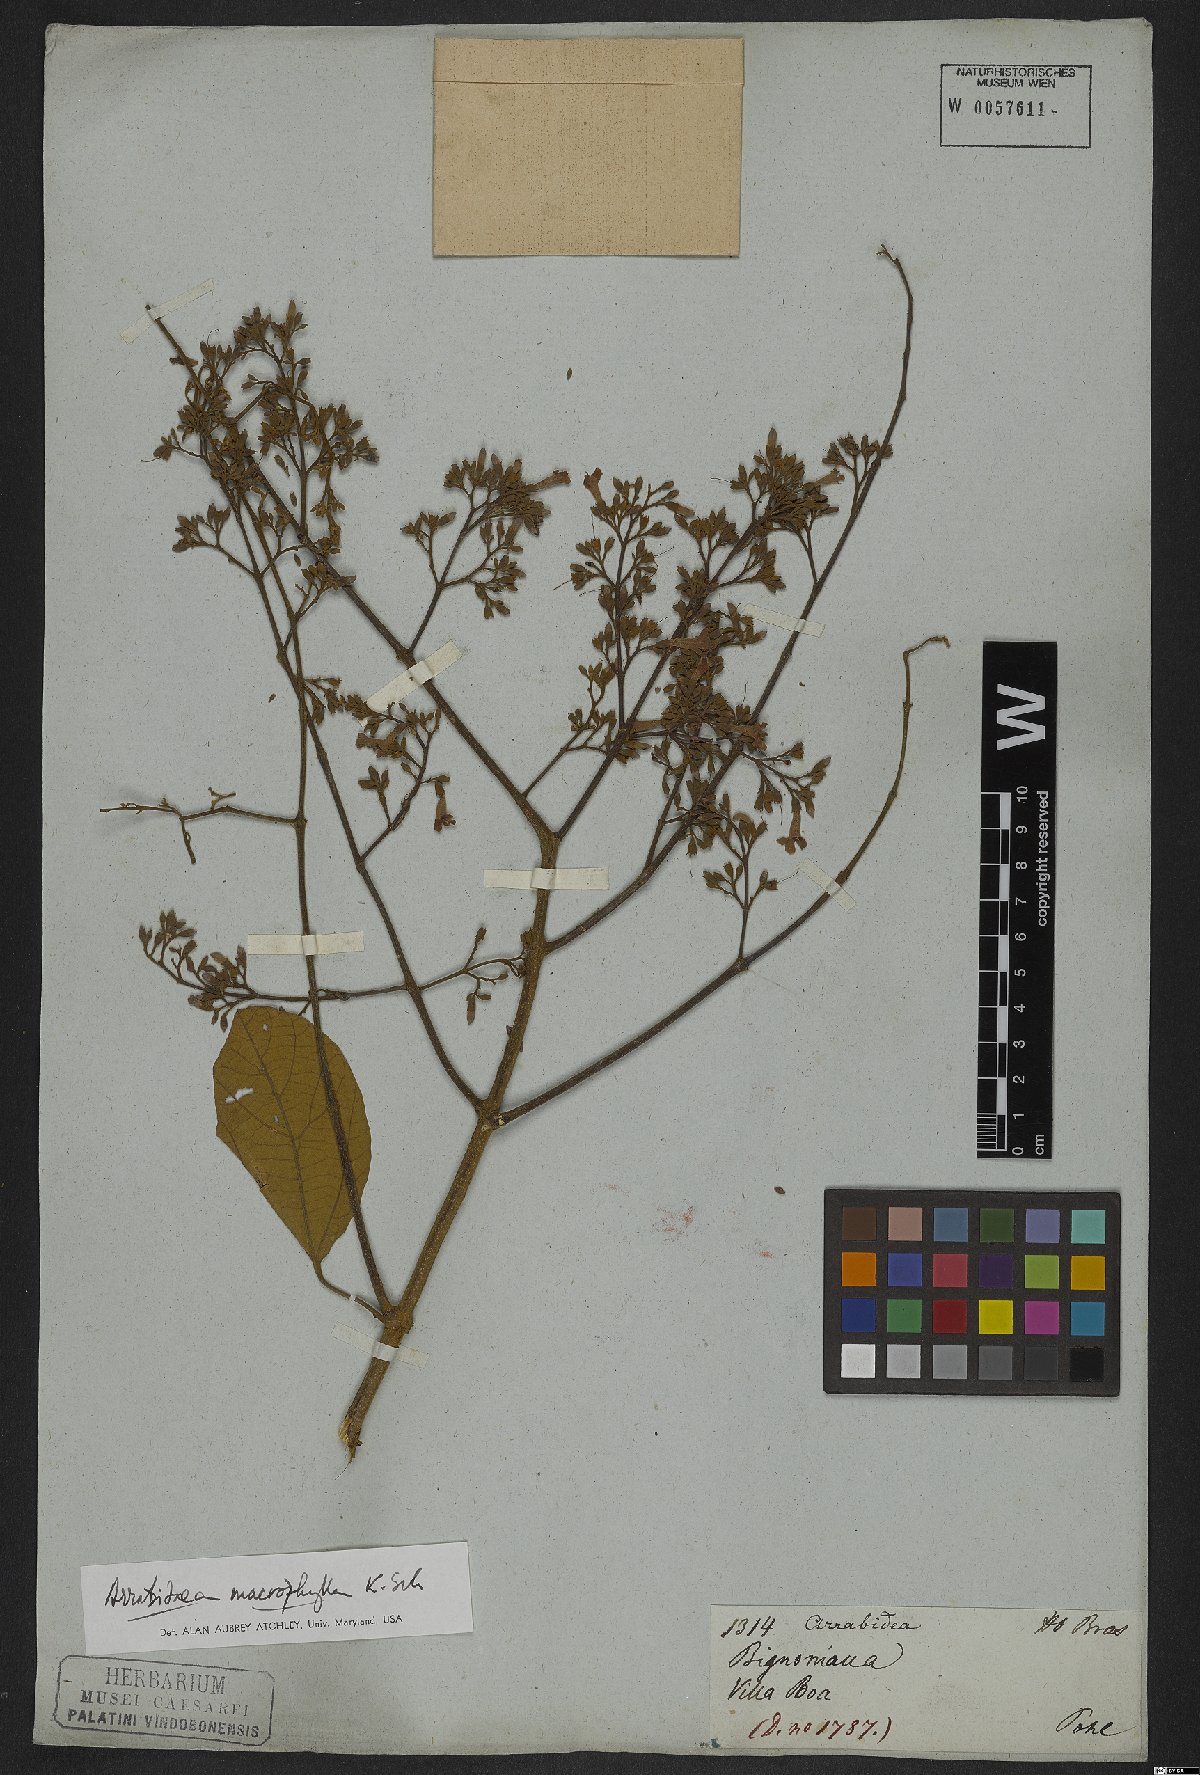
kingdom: Plantae
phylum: Tracheophyta
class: Magnoliopsida
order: Lamiales
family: Bignoniaceae
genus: Xylophragma
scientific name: Xylophragma platyphyllum
